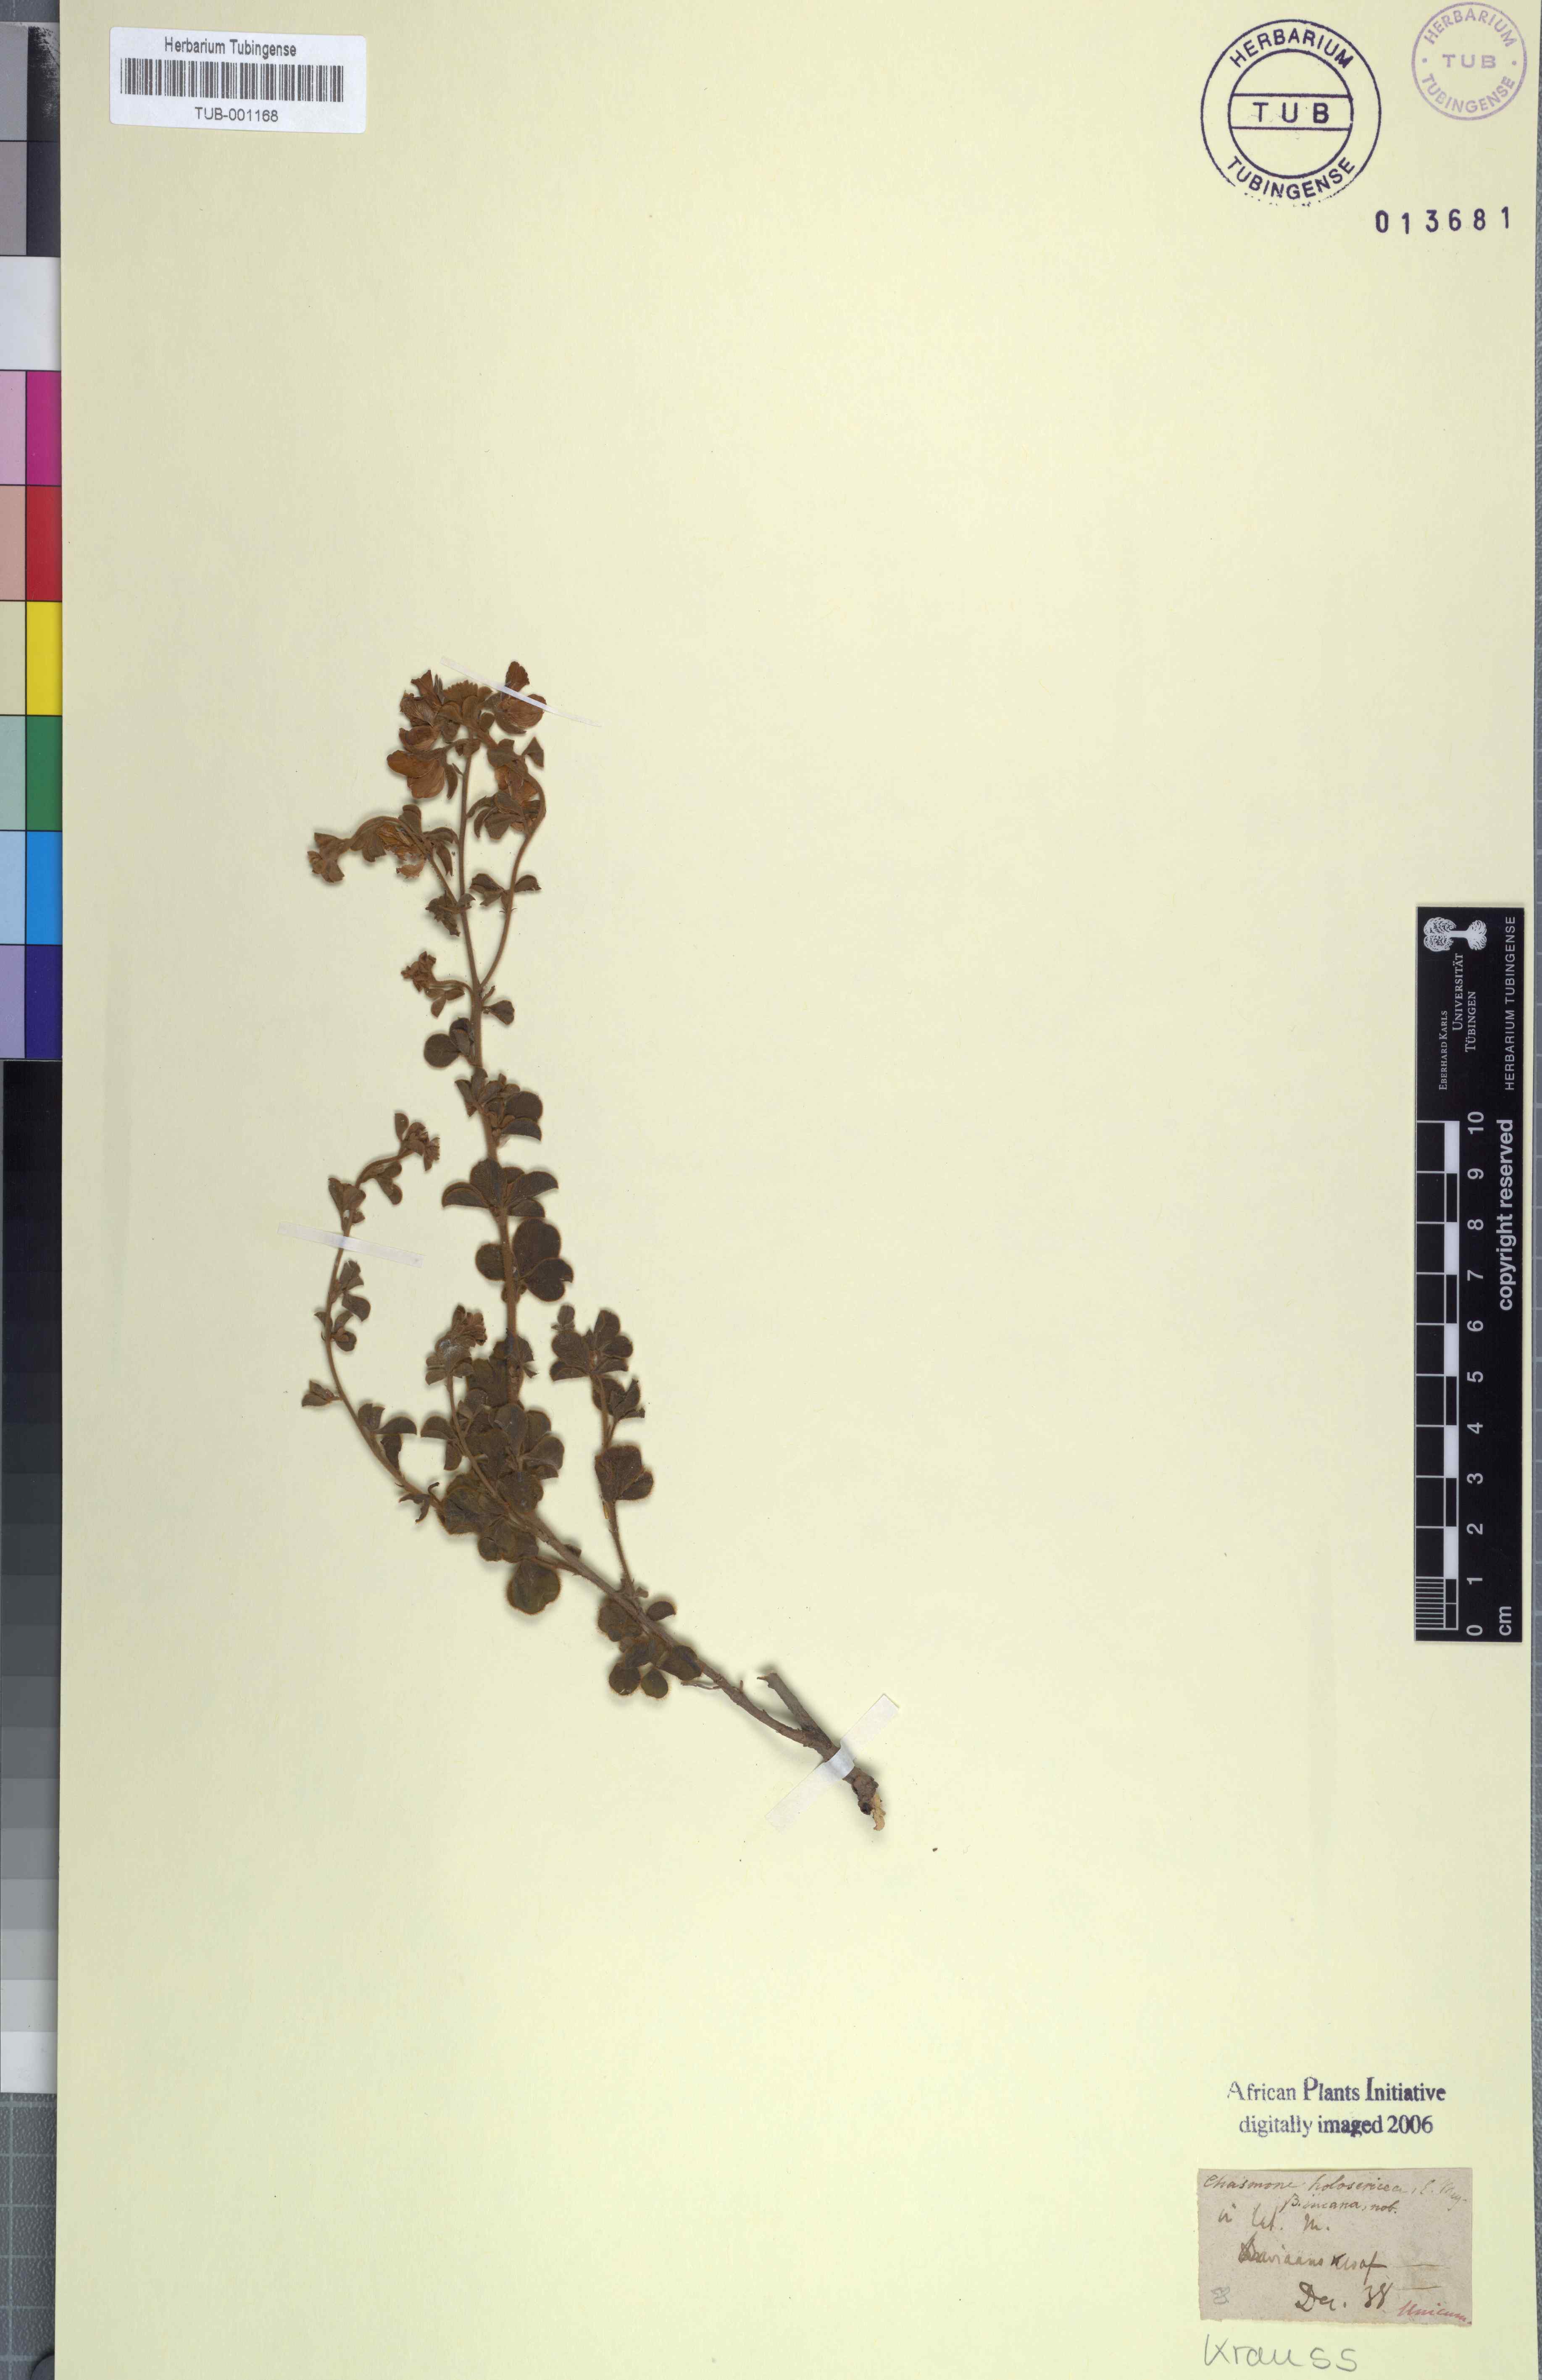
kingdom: Plantae
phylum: Tracheophyta
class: Magnoliopsida
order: Fabales
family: Fabaceae
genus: Argyrolobium
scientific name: Argyrolobium trifoliatum
